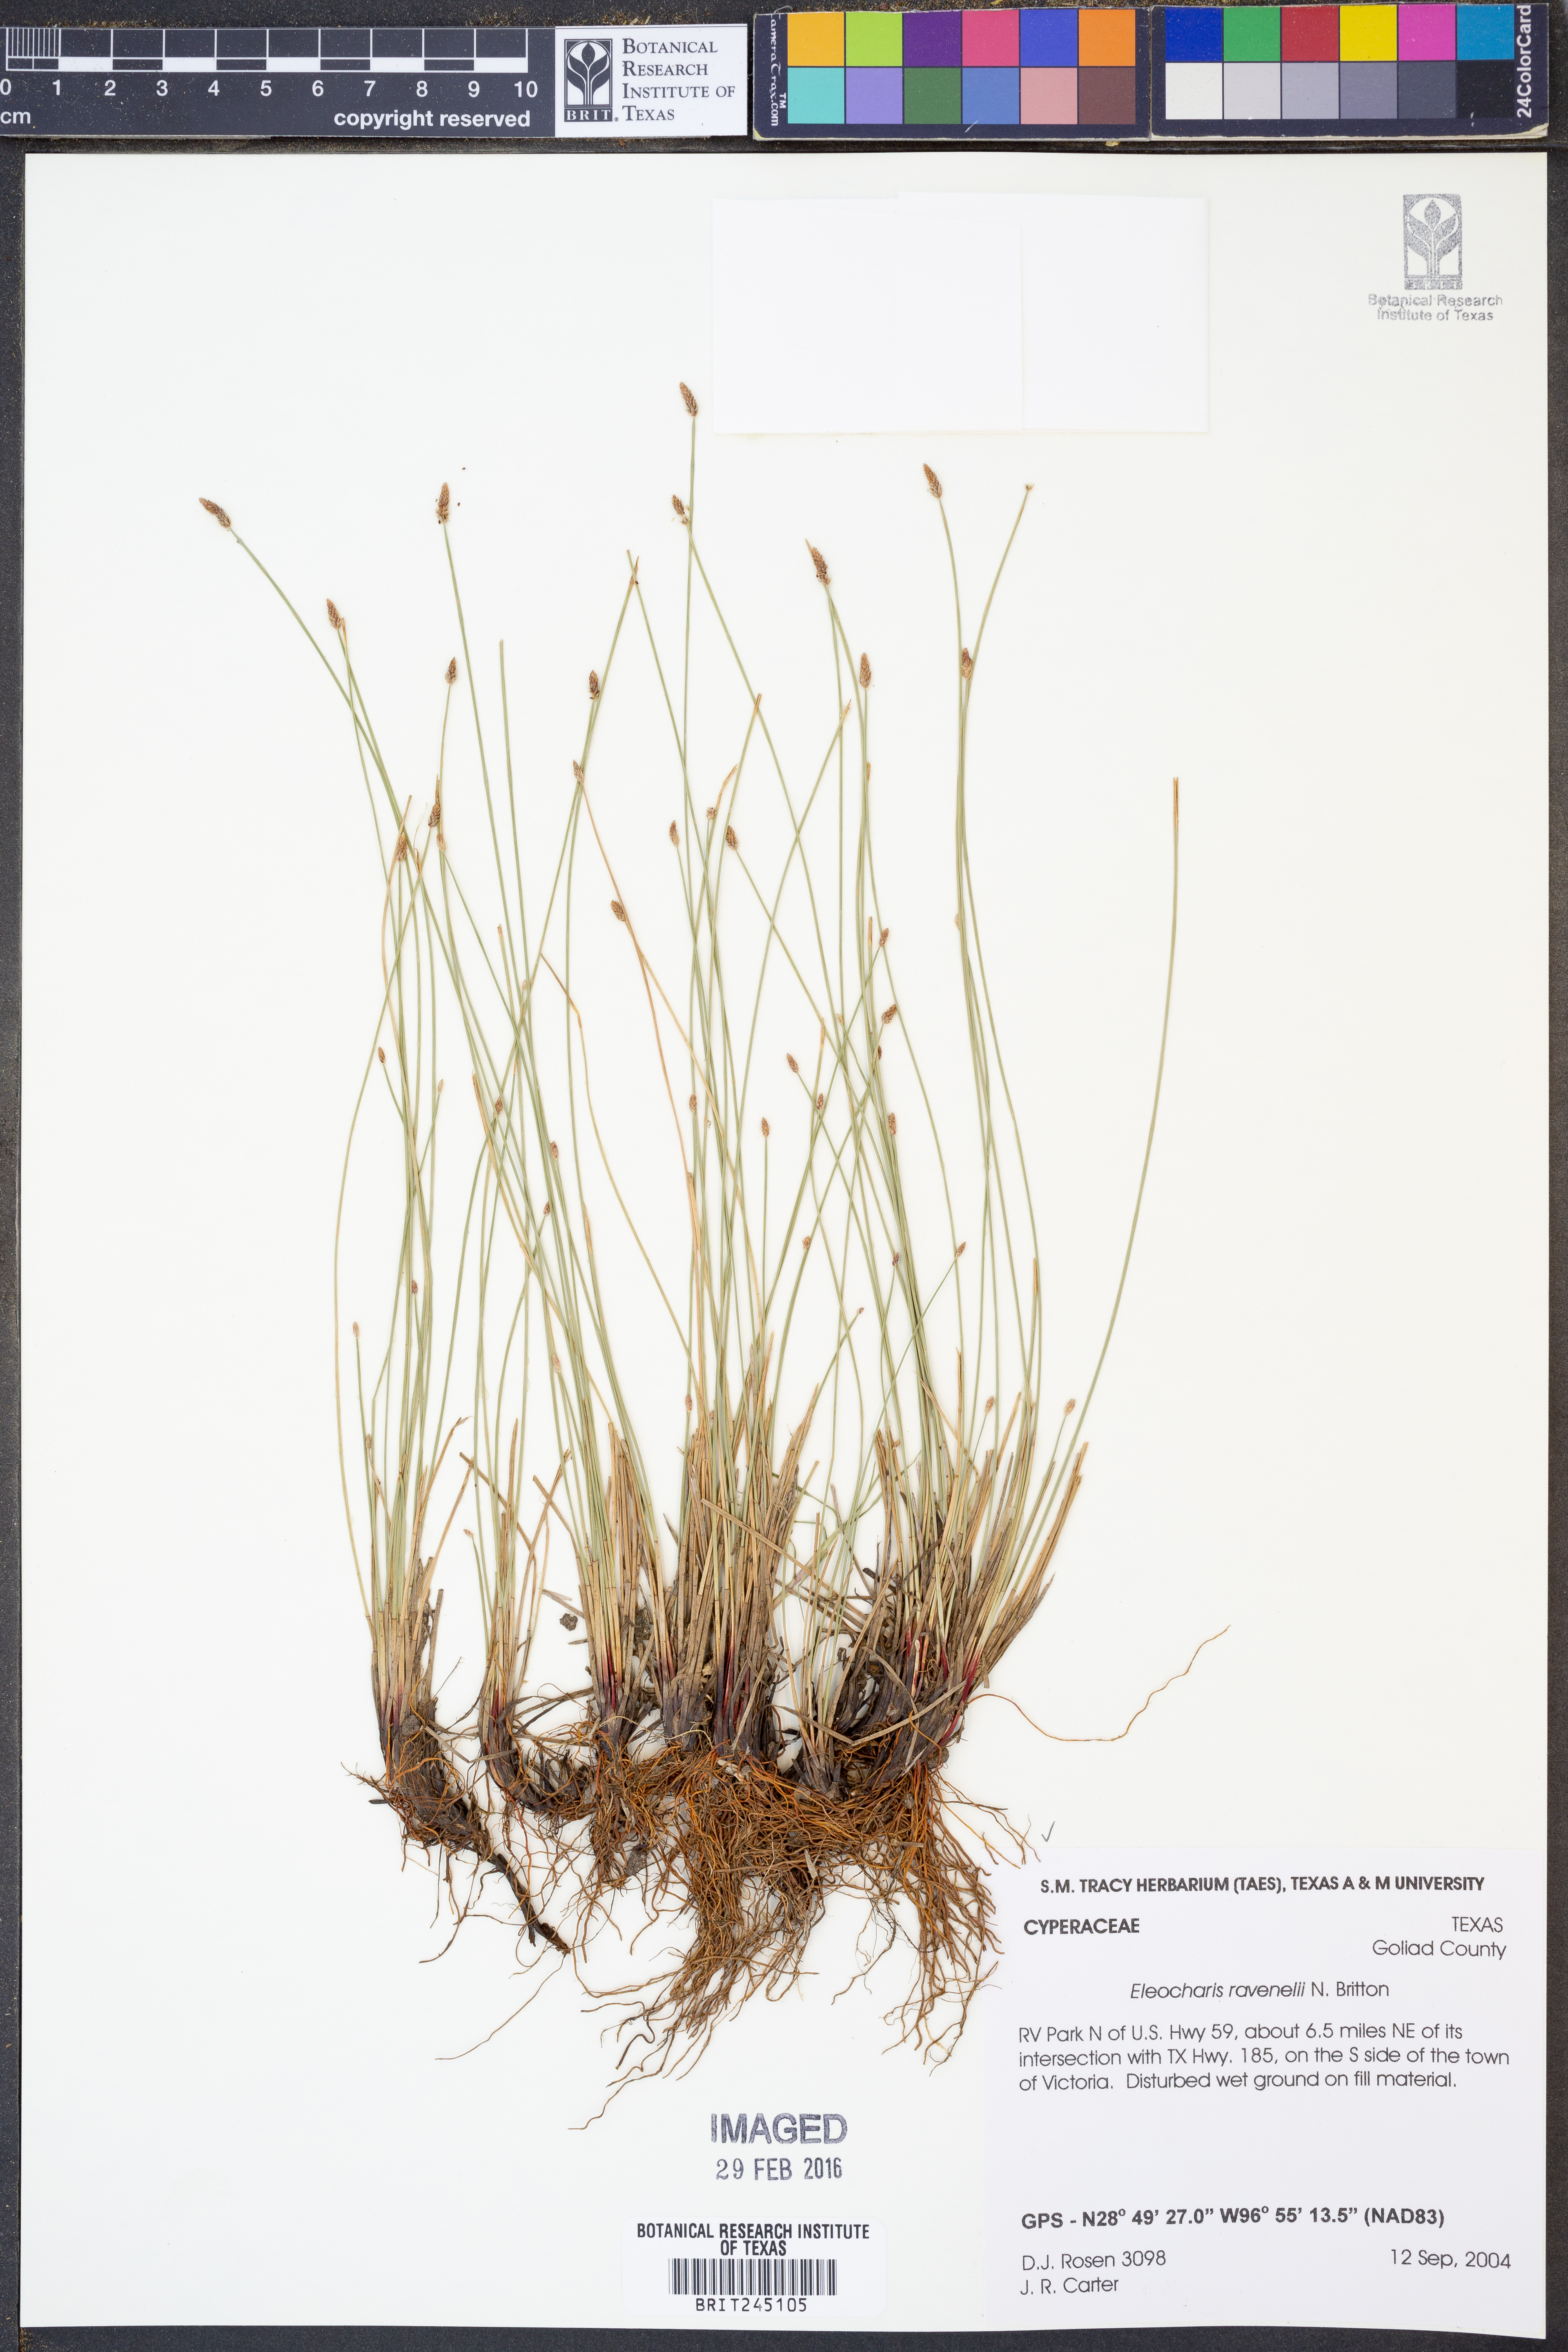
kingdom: Plantae
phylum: Tracheophyta
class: Liliopsida
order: Poales
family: Cyperaceae
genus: Eleocharis
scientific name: Eleocharis ravenelii
